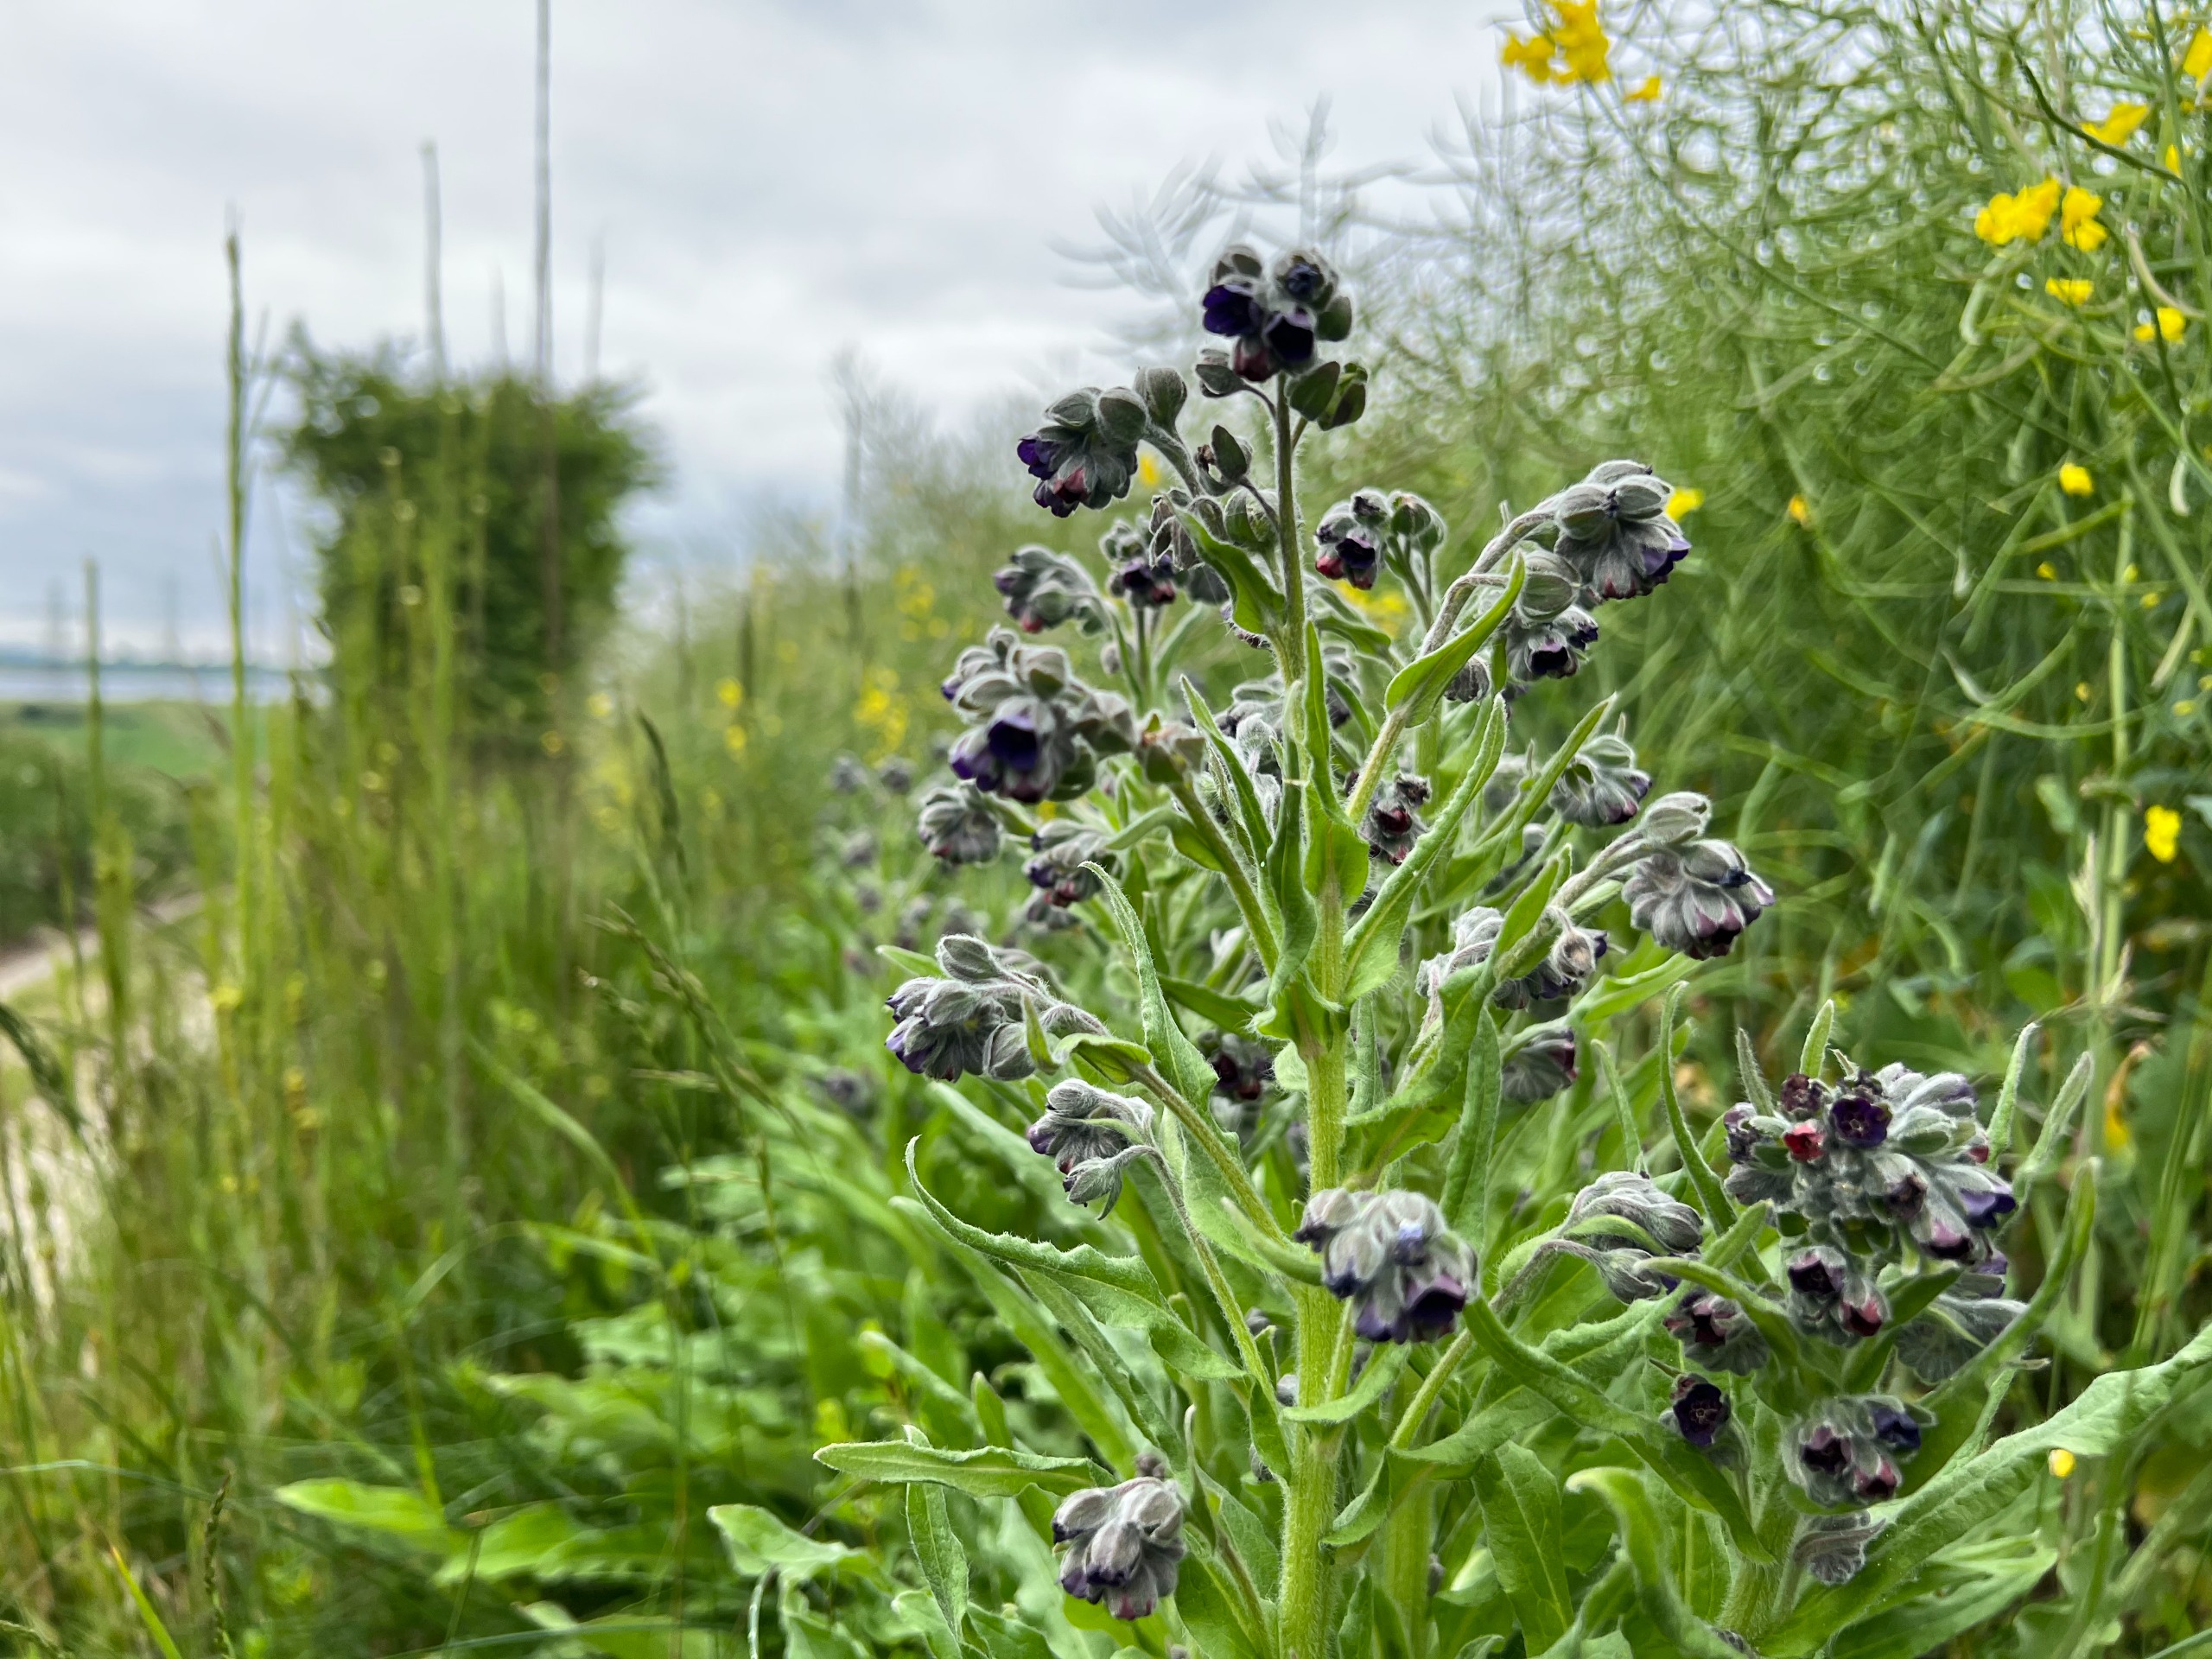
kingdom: Plantae
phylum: Tracheophyta
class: Magnoliopsida
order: Boraginales
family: Boraginaceae
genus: Cynoglossum
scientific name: Cynoglossum officinale
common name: Hundetunge
